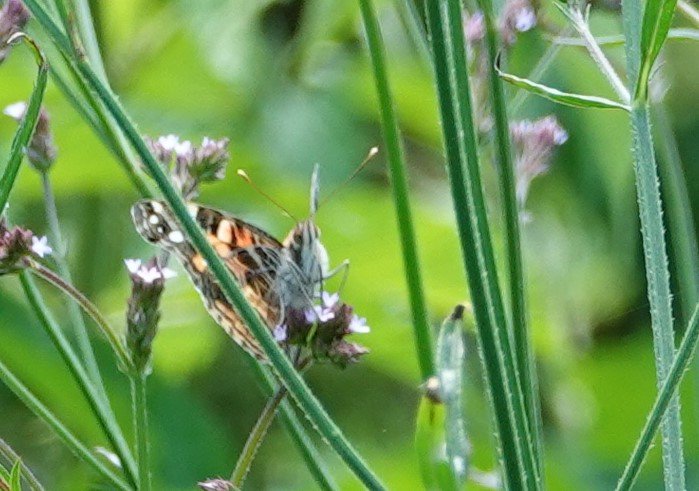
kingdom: Animalia
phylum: Arthropoda
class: Insecta
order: Lepidoptera
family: Nymphalidae
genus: Vanessa
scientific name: Vanessa virginiensis
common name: American Lady
